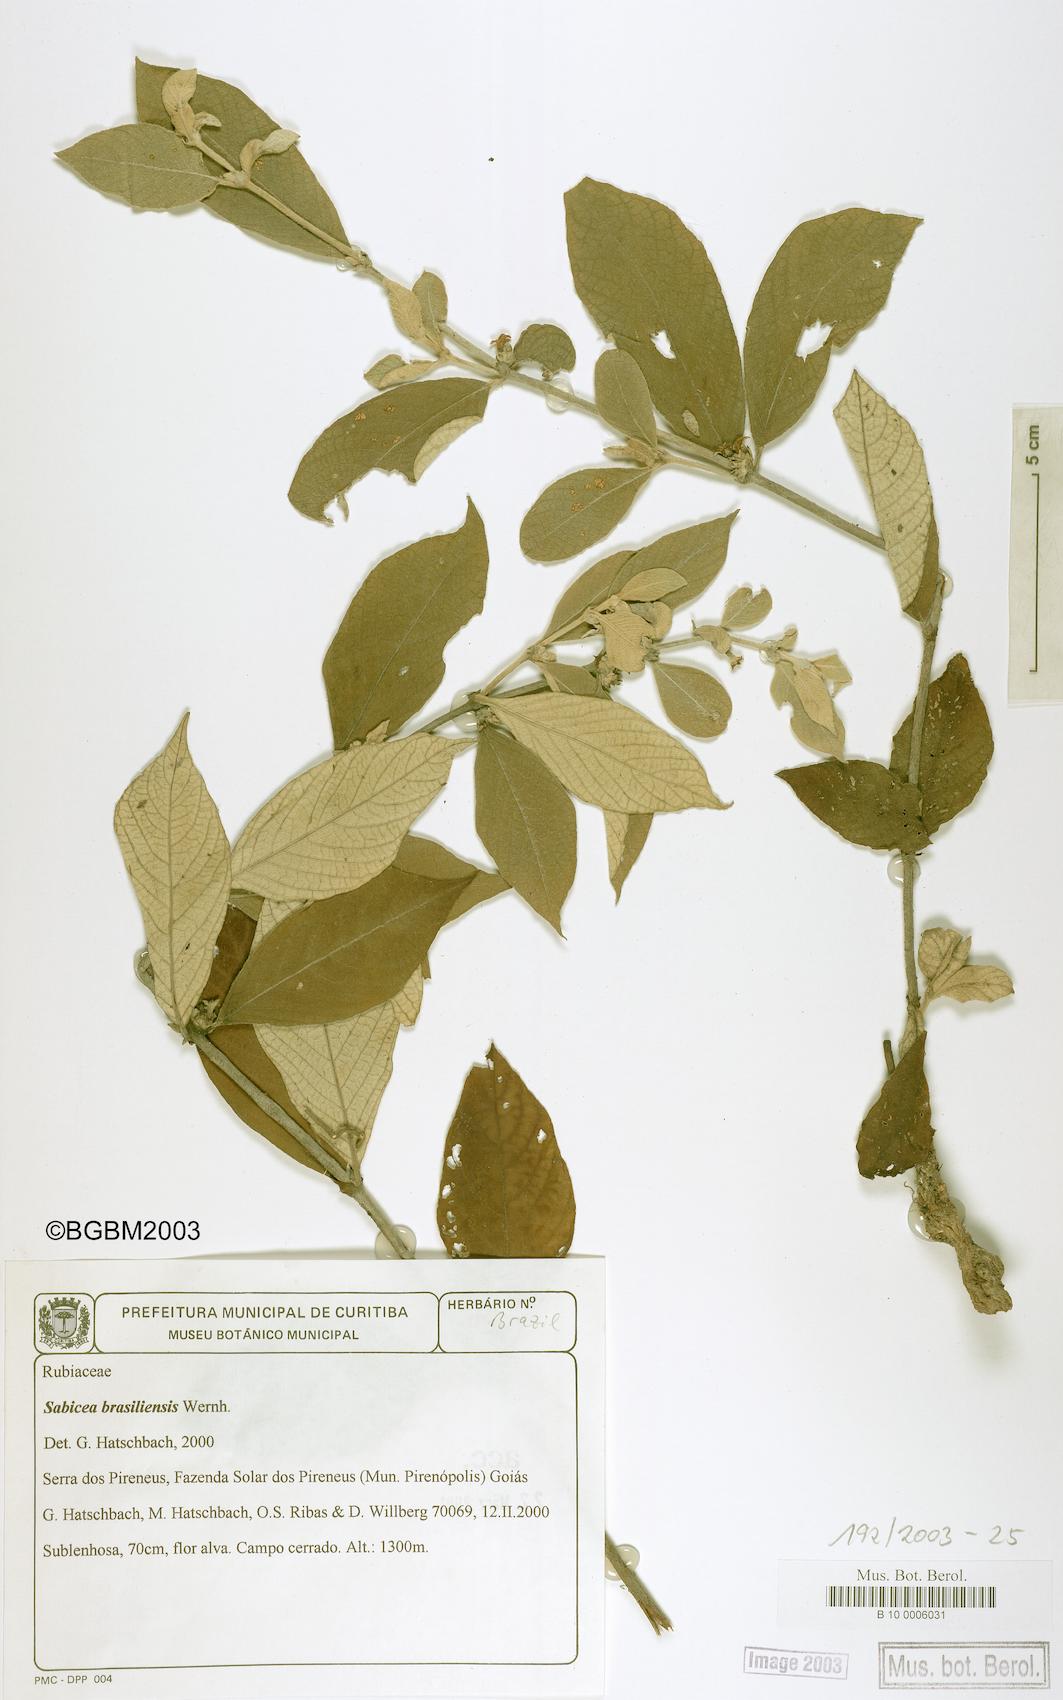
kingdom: Plantae
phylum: Tracheophyta
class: Magnoliopsida
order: Gentianales
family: Rubiaceae
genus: Sabicea
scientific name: Sabicea brasiliensis
